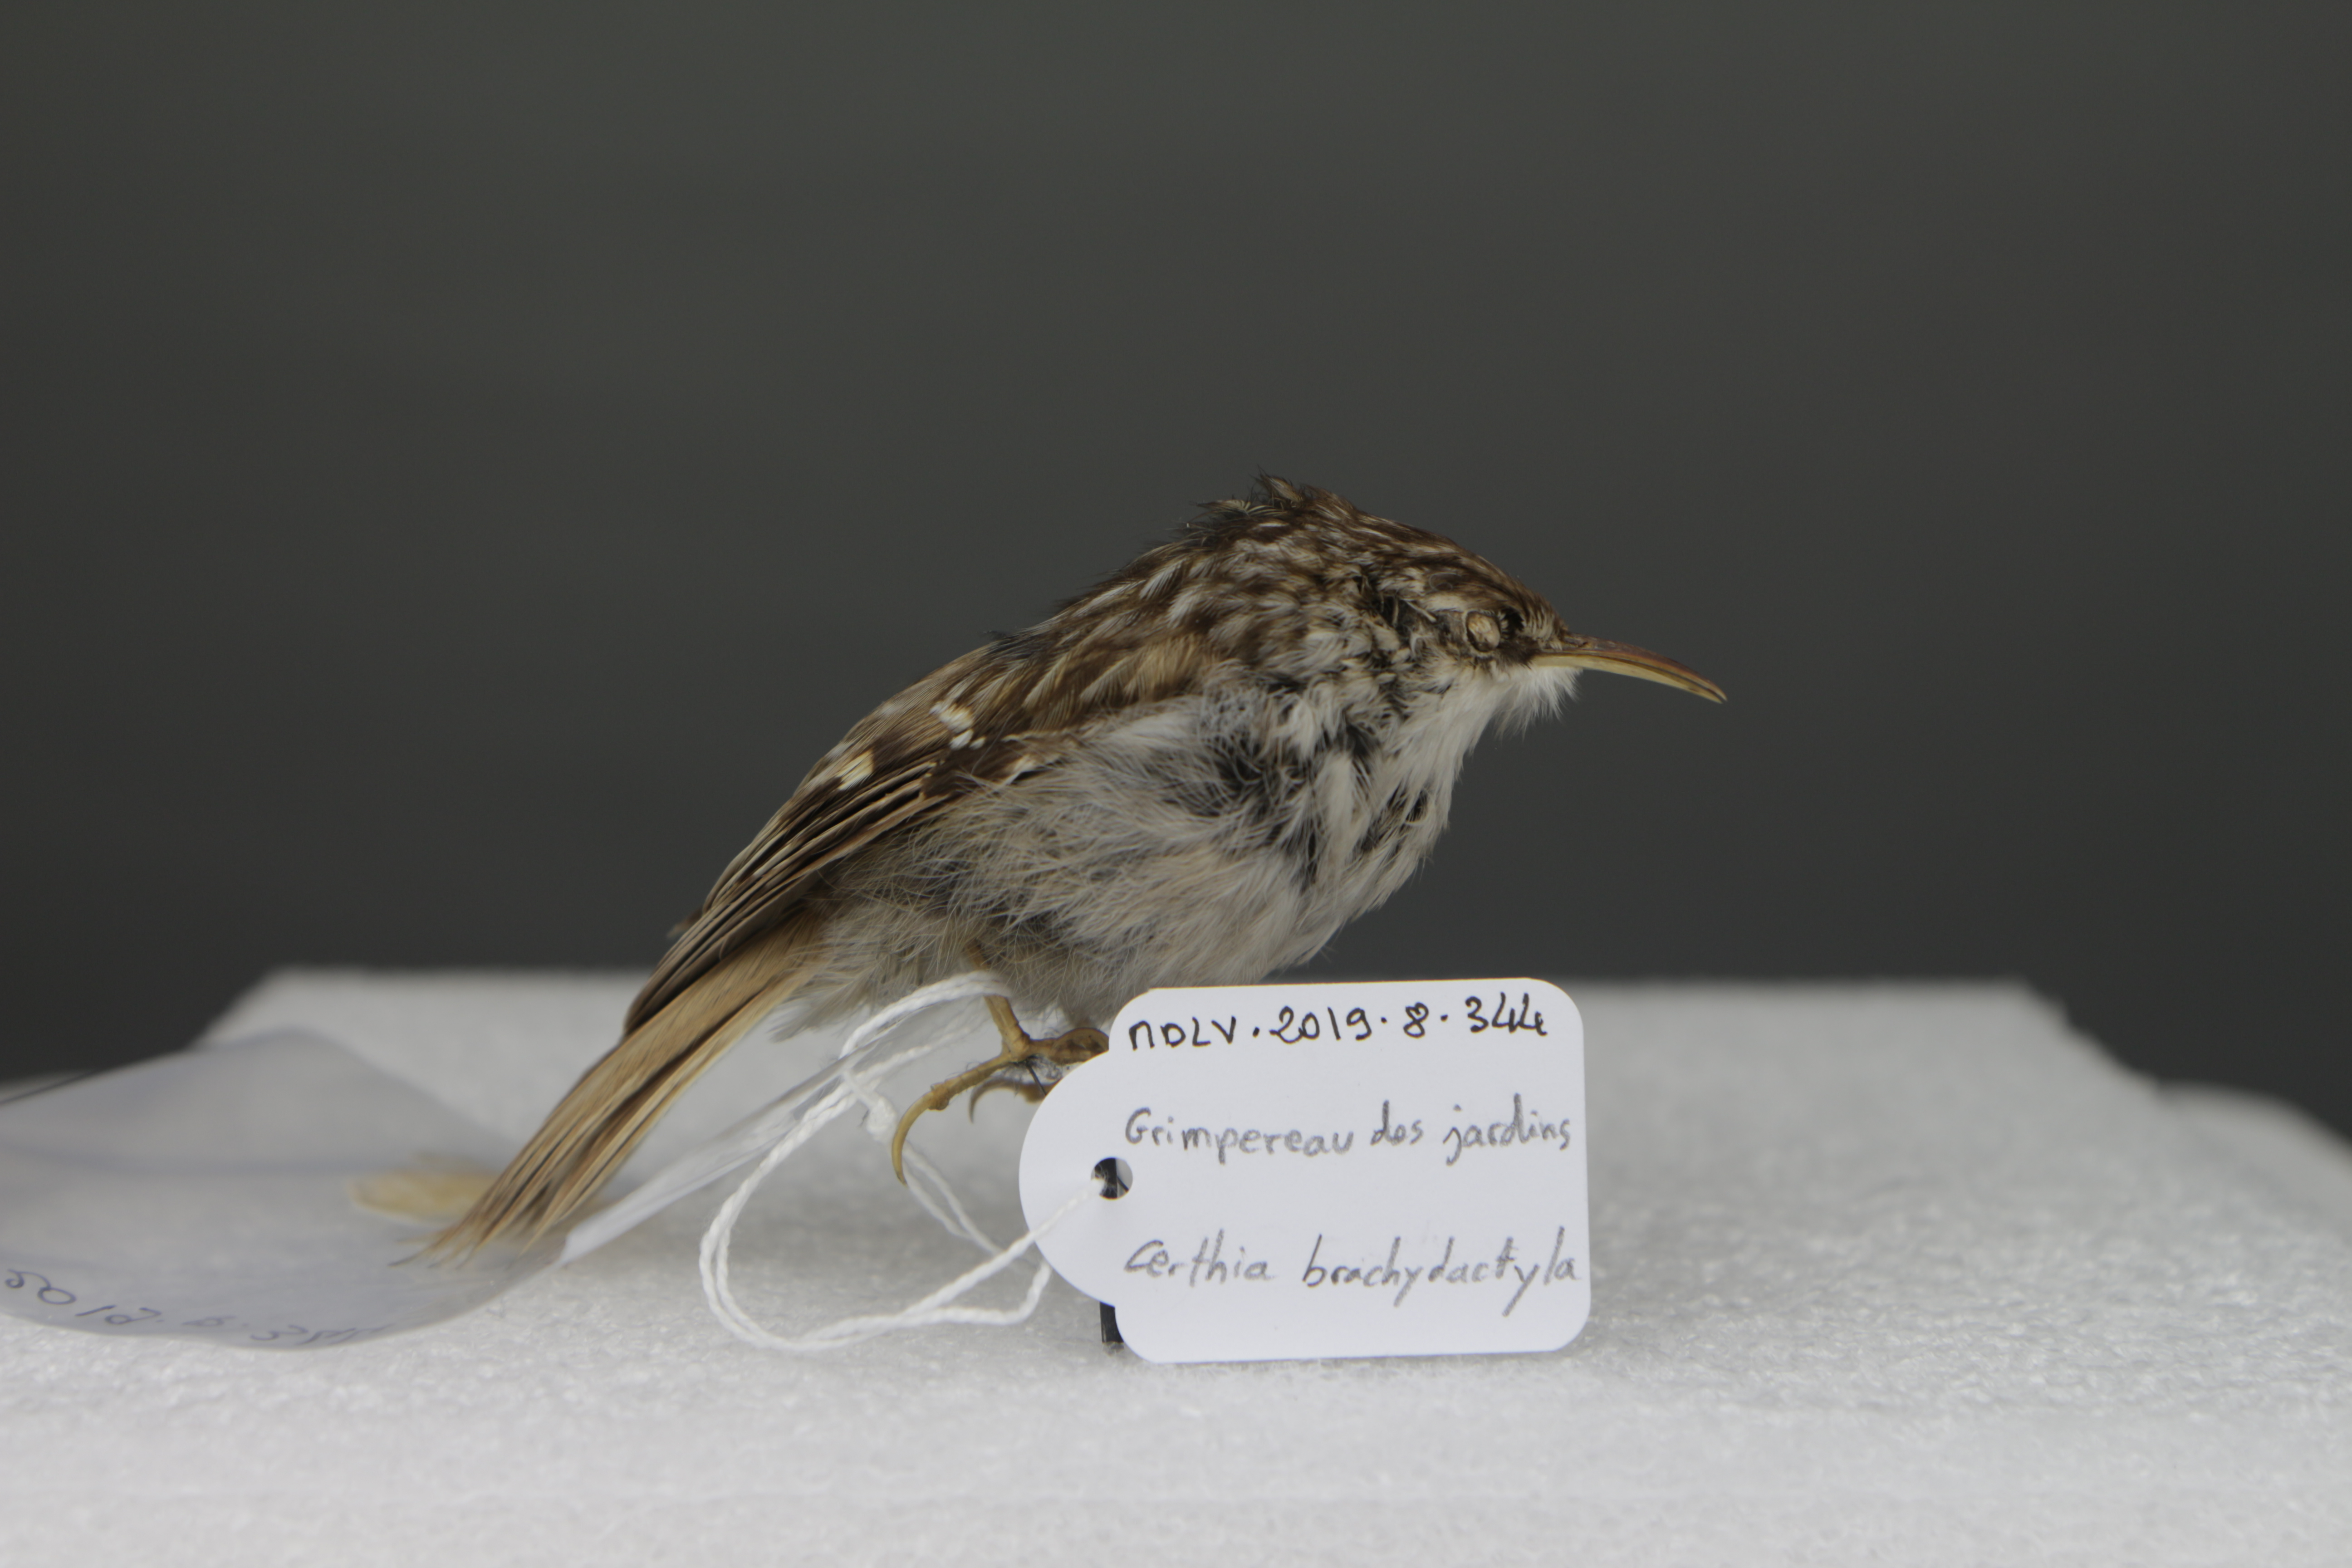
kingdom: Animalia
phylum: Chordata
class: Aves
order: Passeriformes
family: Certhiidae
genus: Certhia
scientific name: Certhia brachydactyla
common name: Short-toed treecreeper
